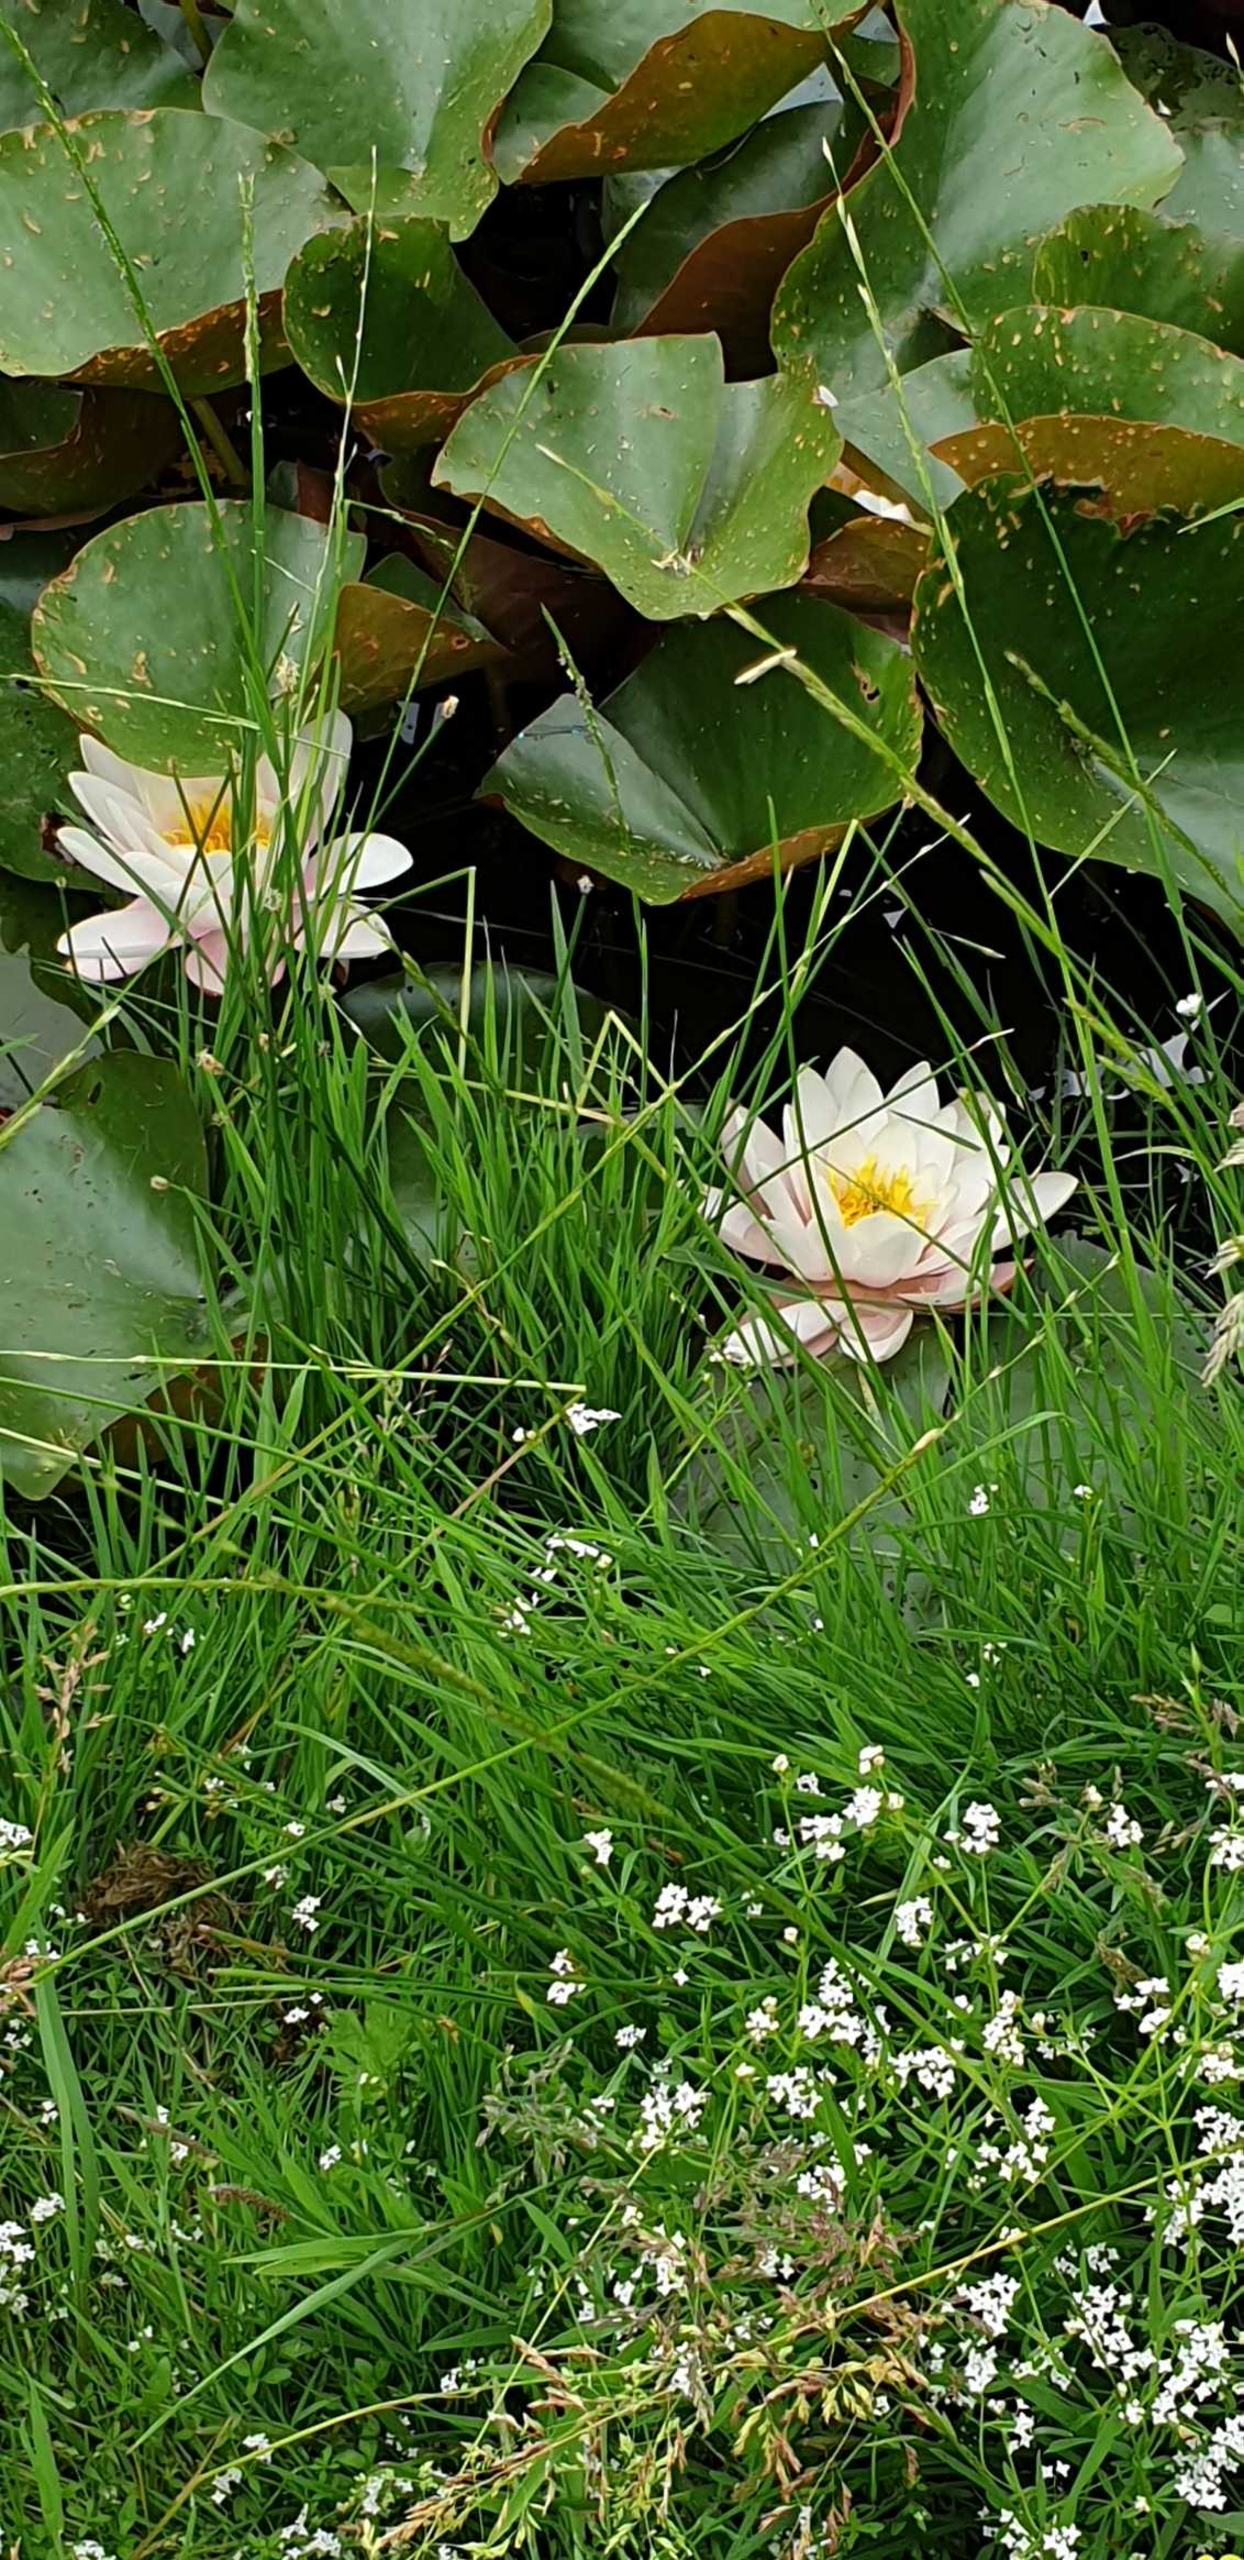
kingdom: Plantae
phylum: Tracheophyta
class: Magnoliopsida
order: Nymphaeales
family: Nymphaeaceae
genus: Nymphaea
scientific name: Nymphaea alba
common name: Hvid åkande
